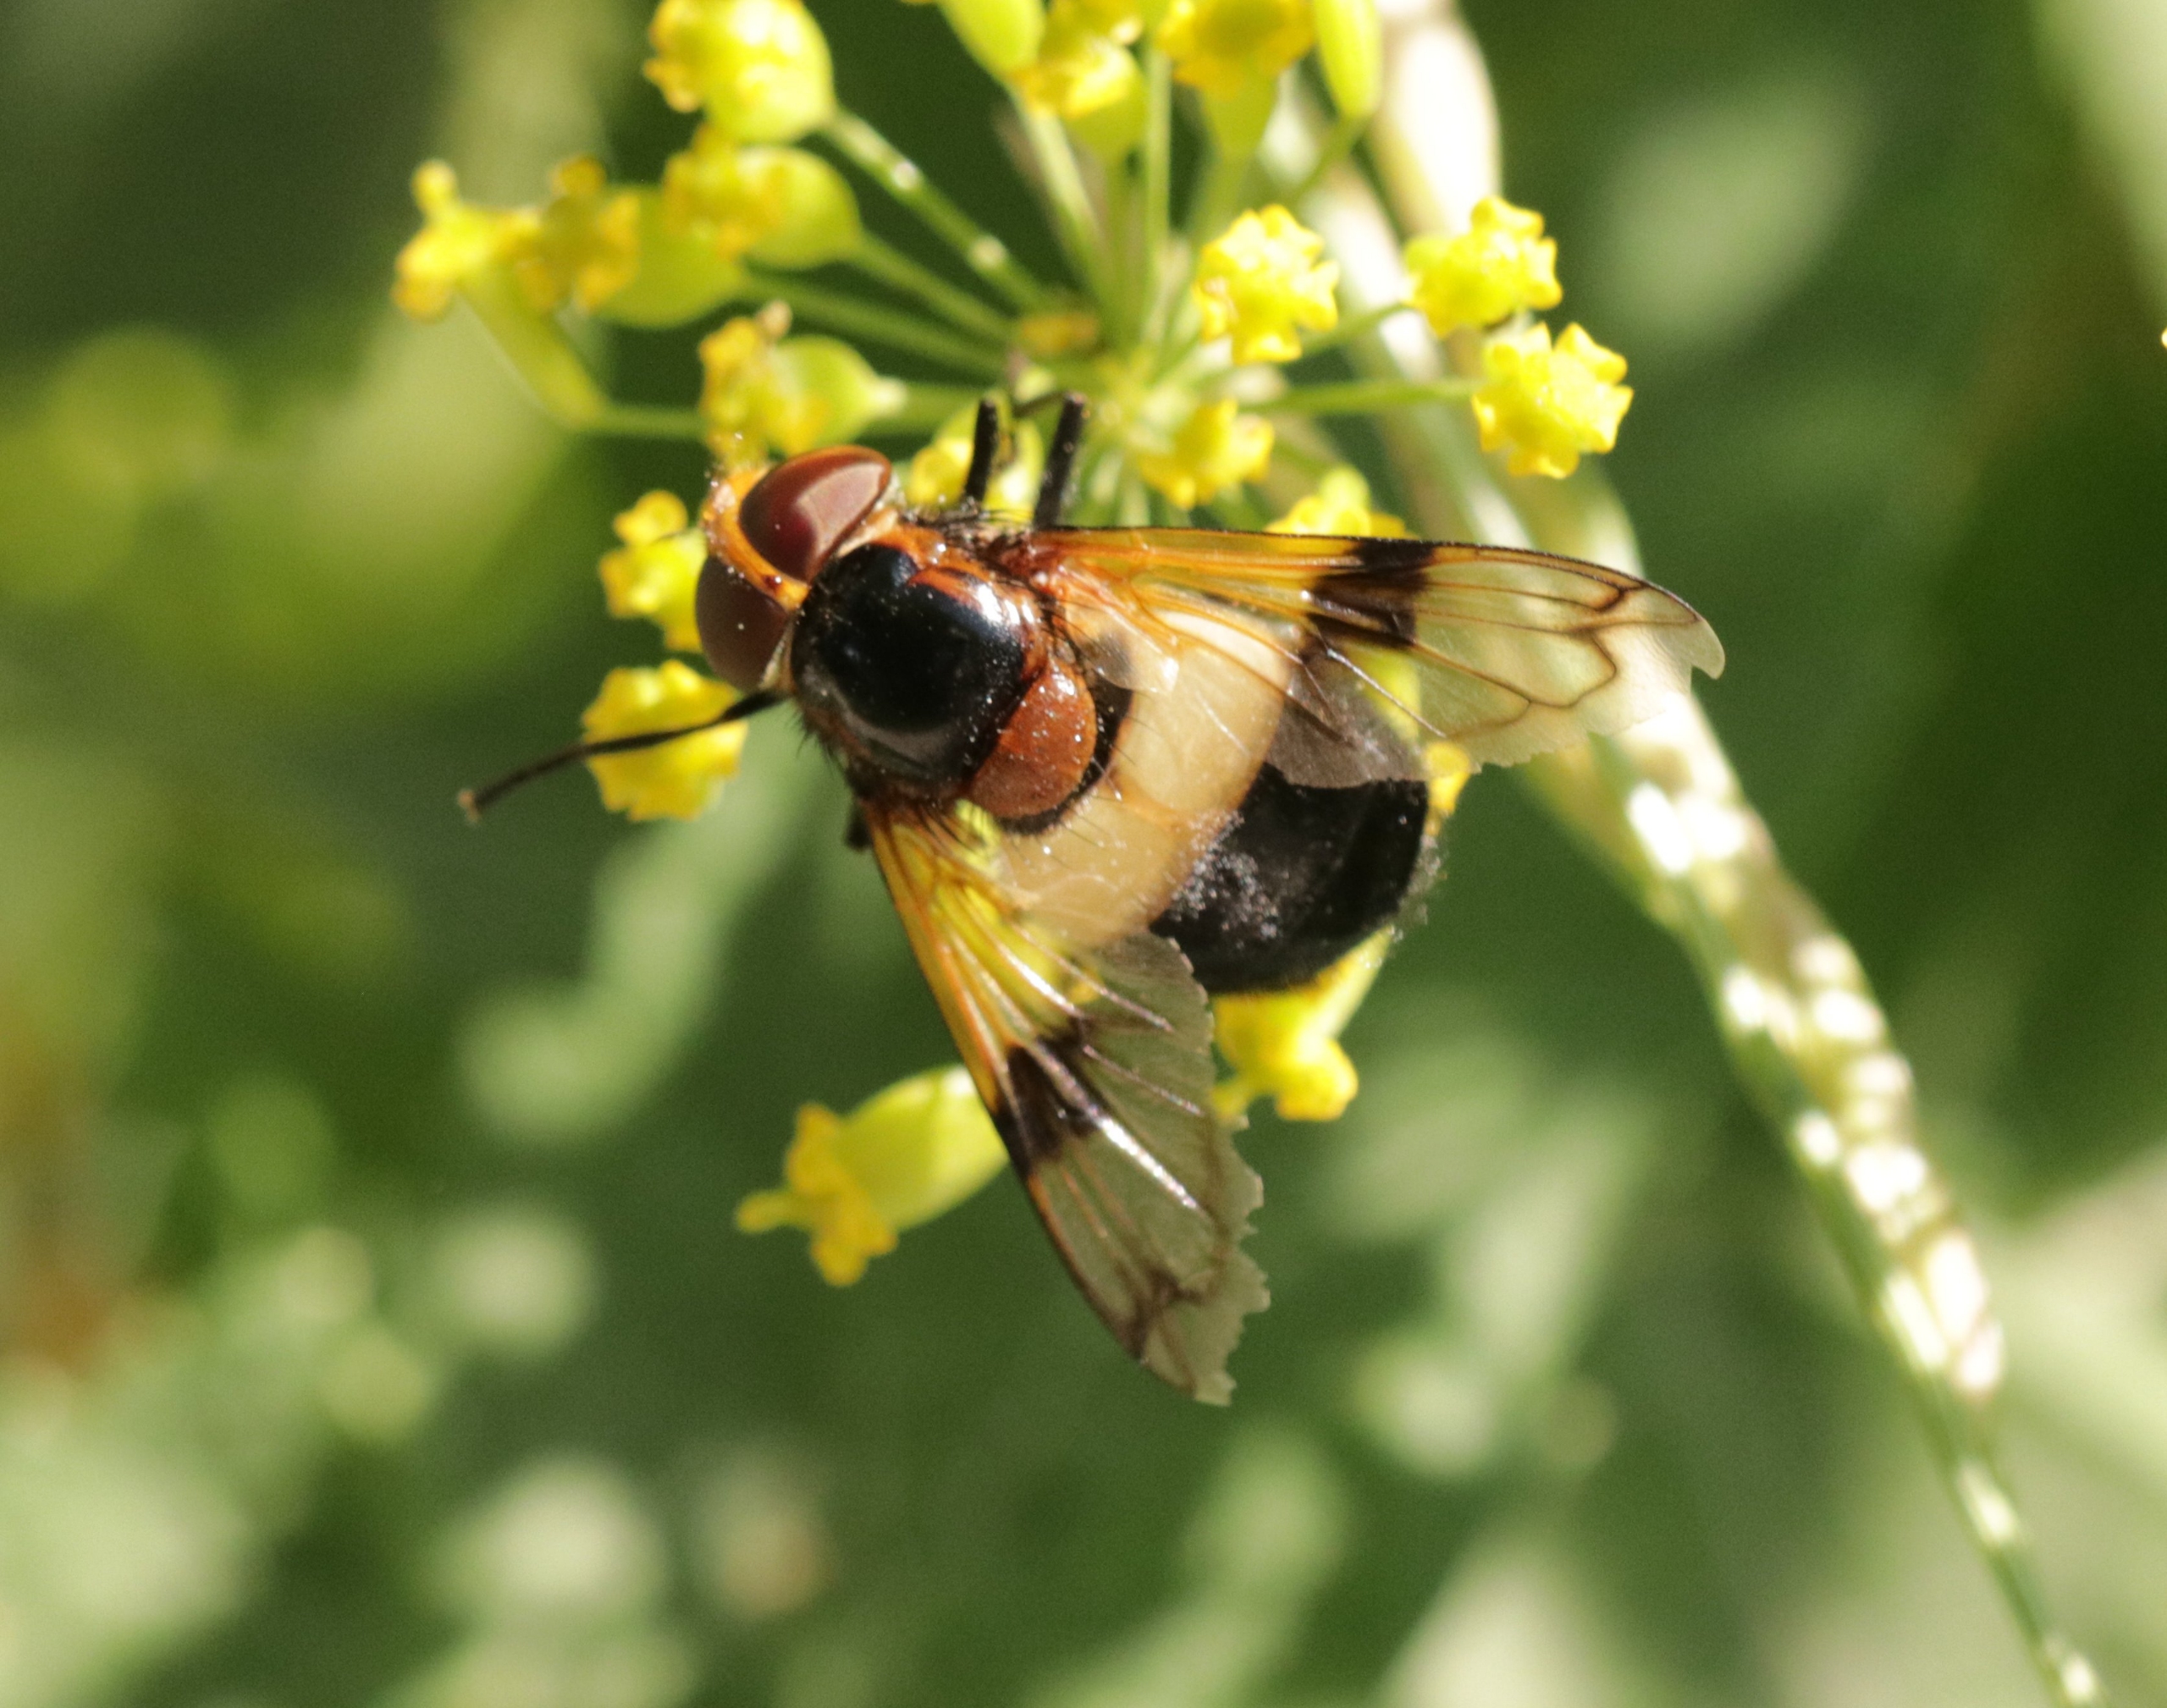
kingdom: Animalia
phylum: Arthropoda
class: Insecta
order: Diptera
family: Syrphidae
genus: Volucella
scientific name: Volucella pellucens
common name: Hvidbåndet humlesvirreflue
